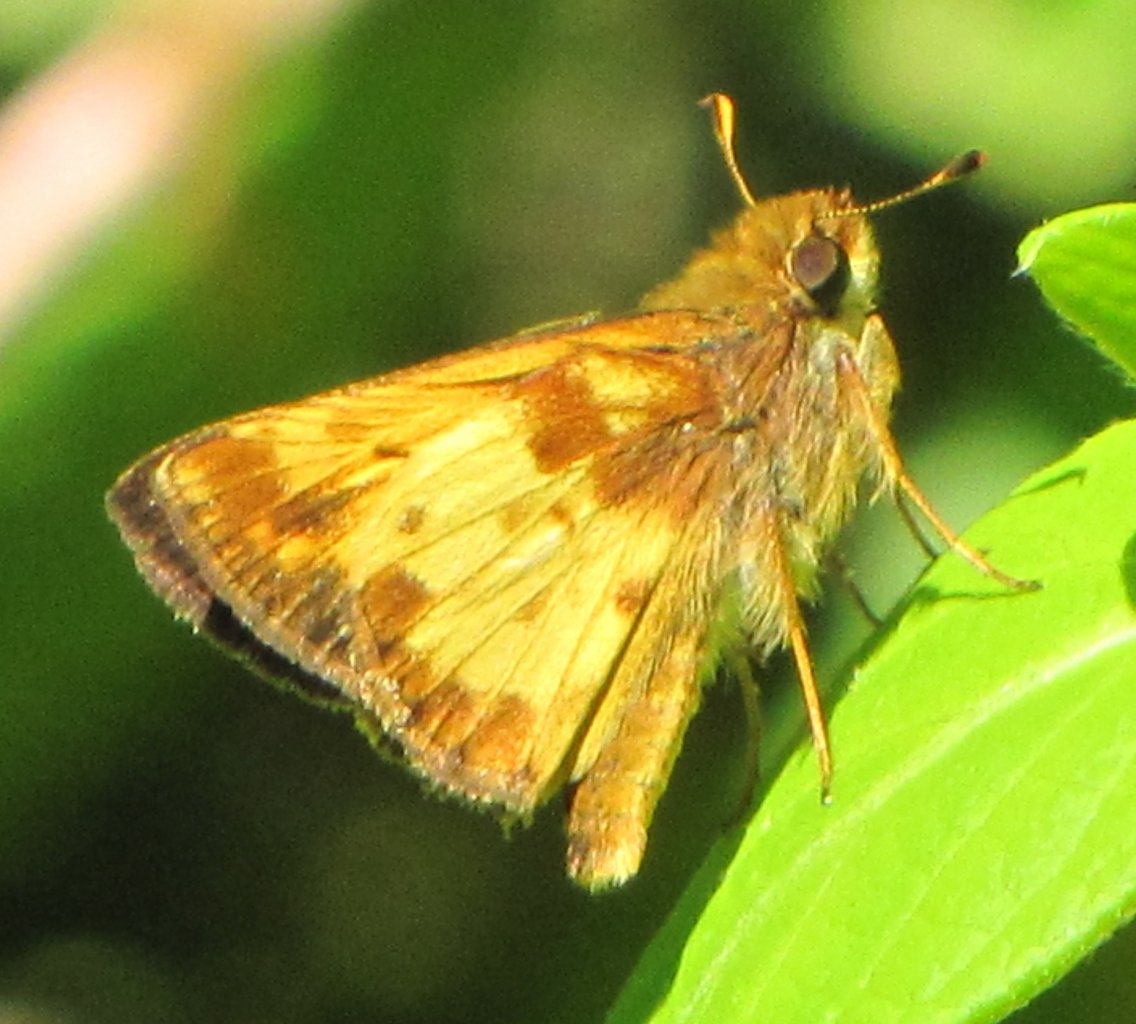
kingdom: Animalia
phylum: Arthropoda
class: Insecta
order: Lepidoptera
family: Hesperiidae
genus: Lon
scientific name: Lon zabulon
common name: Zabulon Skipper
